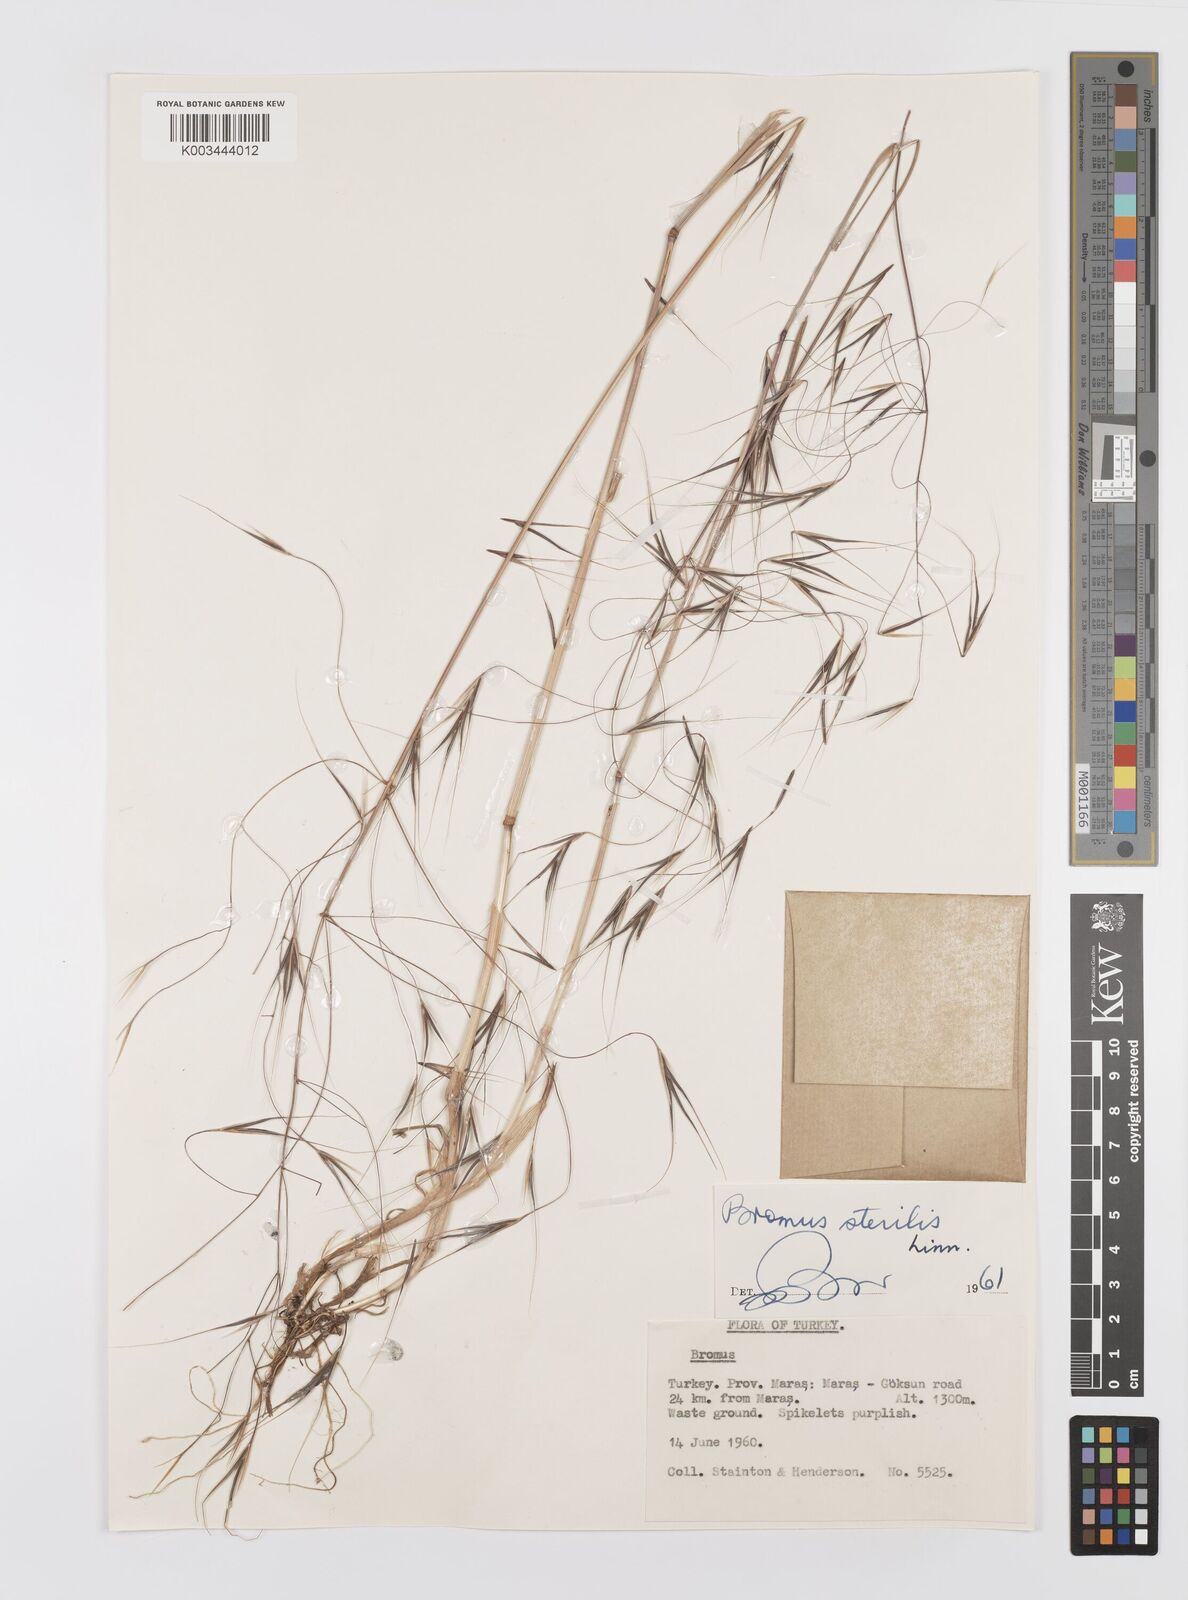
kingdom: Plantae
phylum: Tracheophyta
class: Liliopsida
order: Poales
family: Poaceae
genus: Bromus
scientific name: Bromus sterilis
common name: Poverty brome
